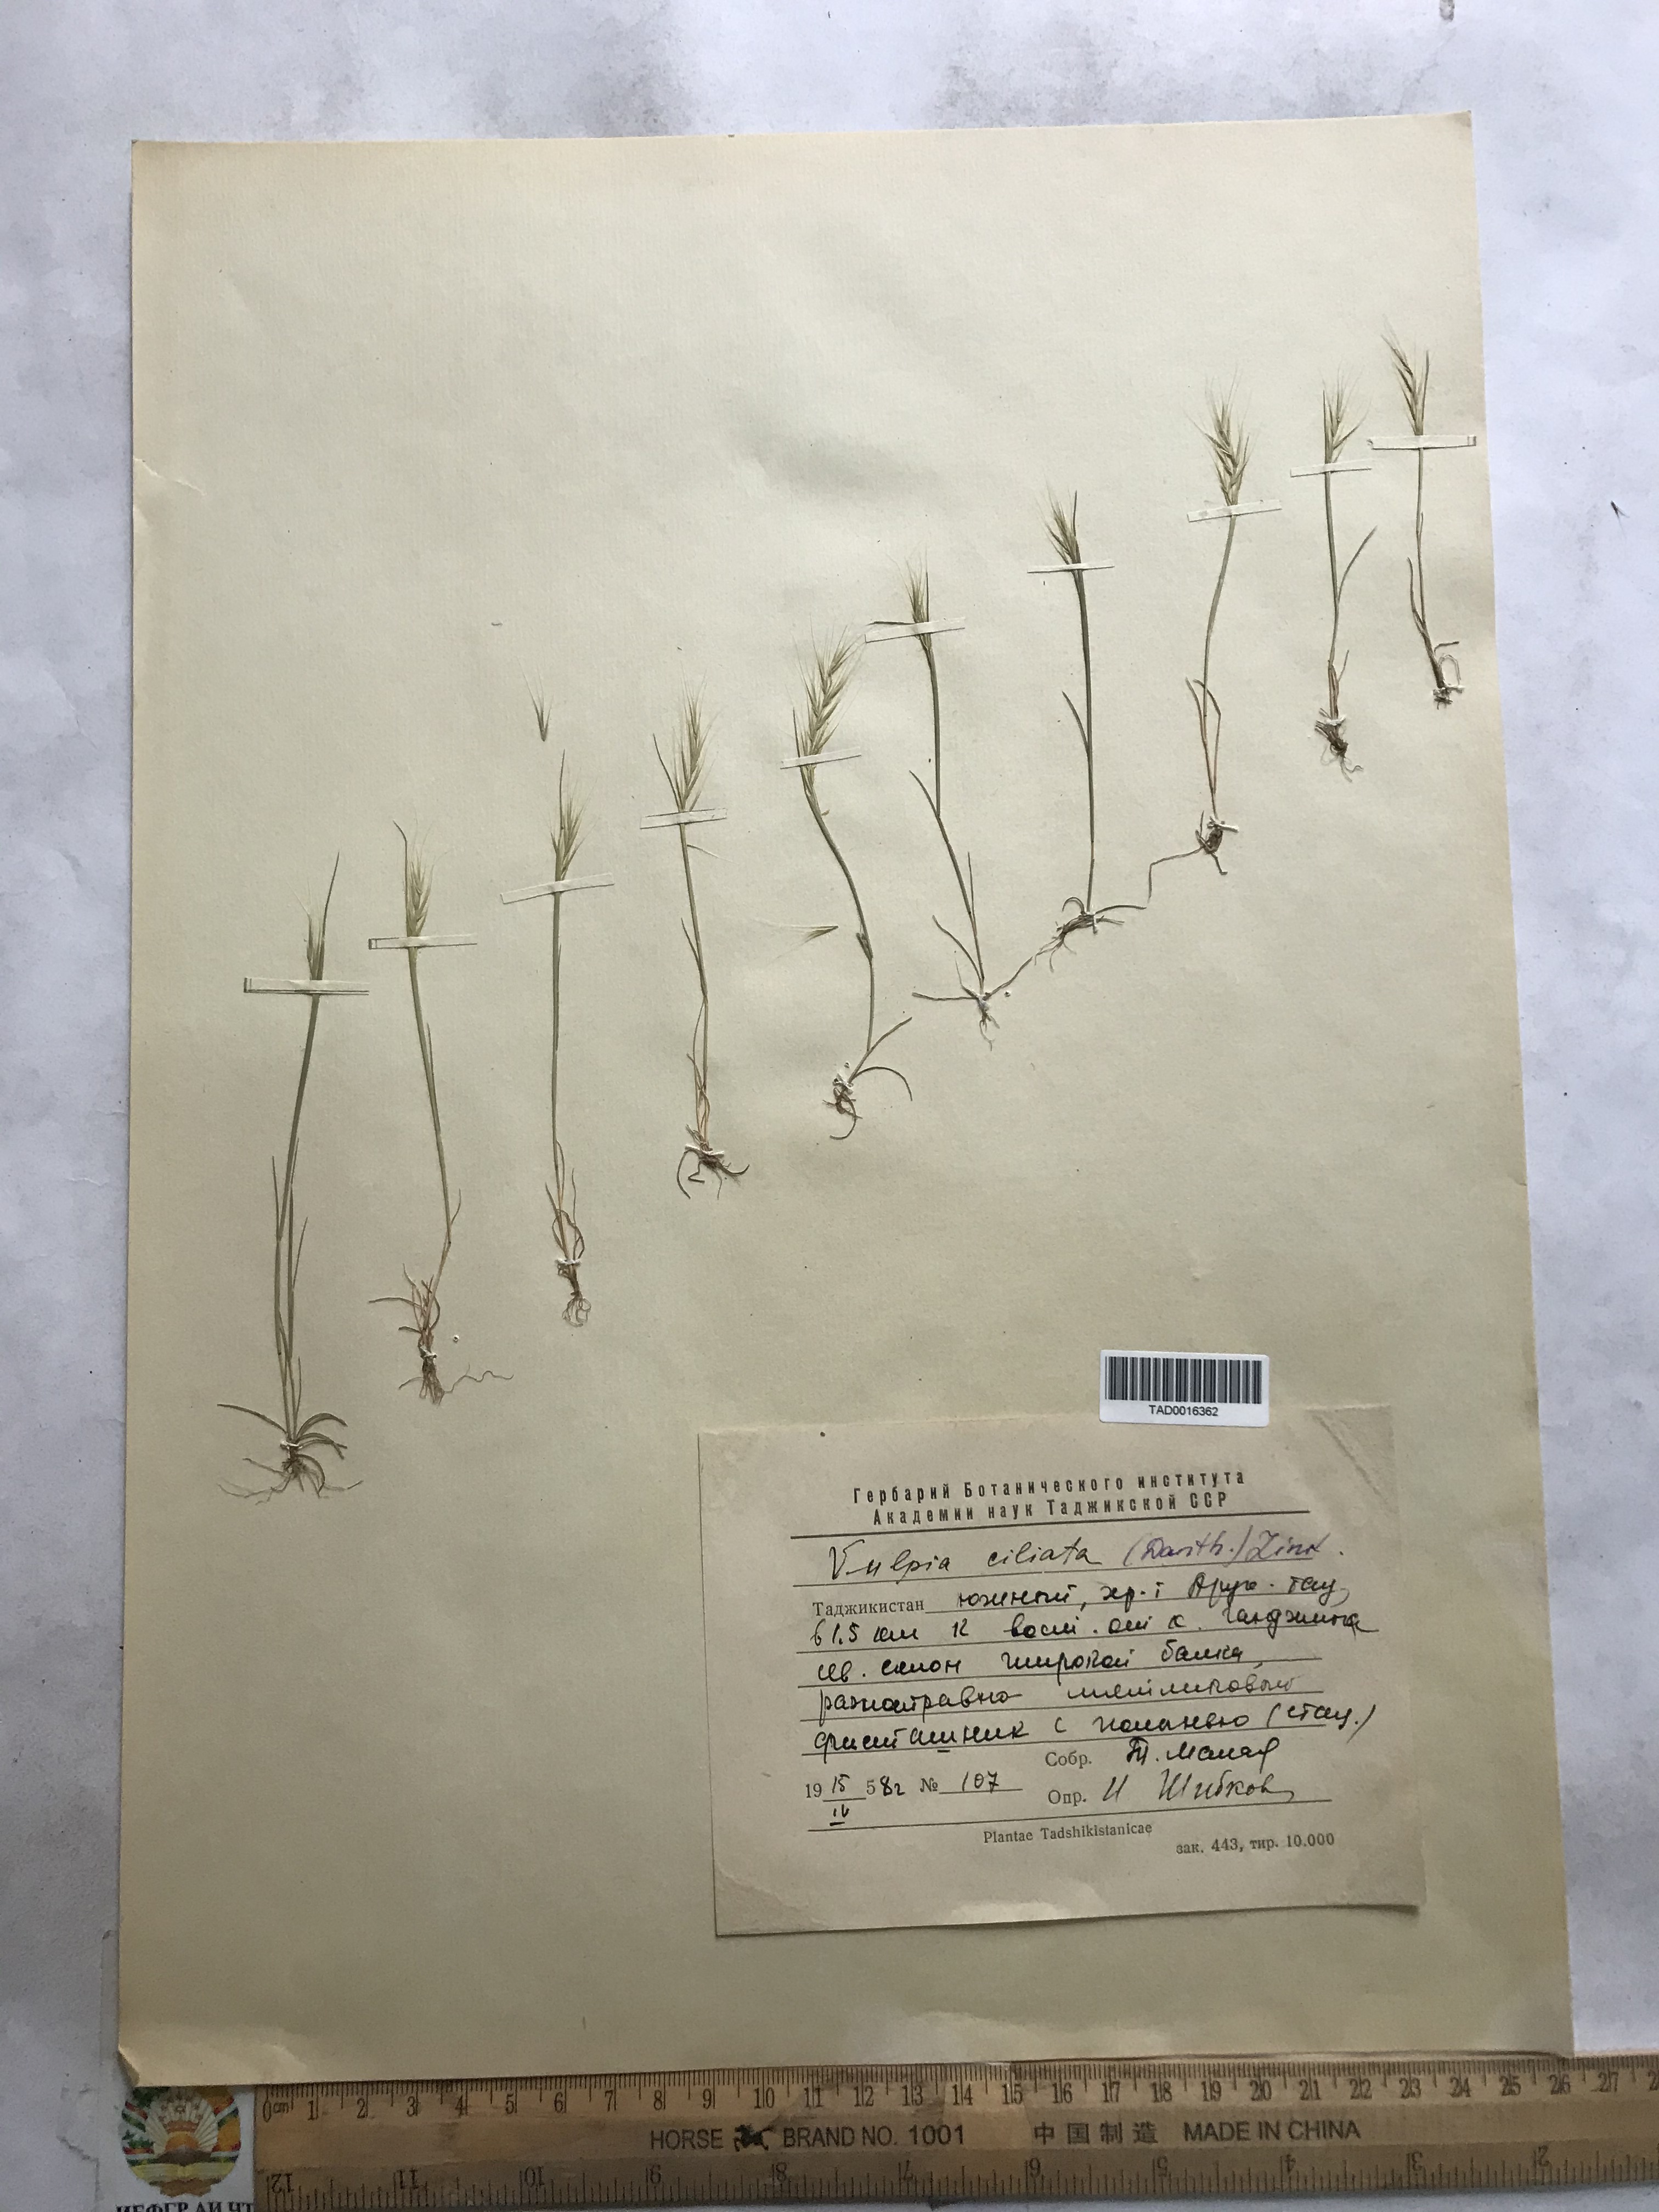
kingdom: Plantae
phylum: Tracheophyta
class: Liliopsida
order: Poales
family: Poaceae
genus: Festuca
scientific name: Festuca ambigua
